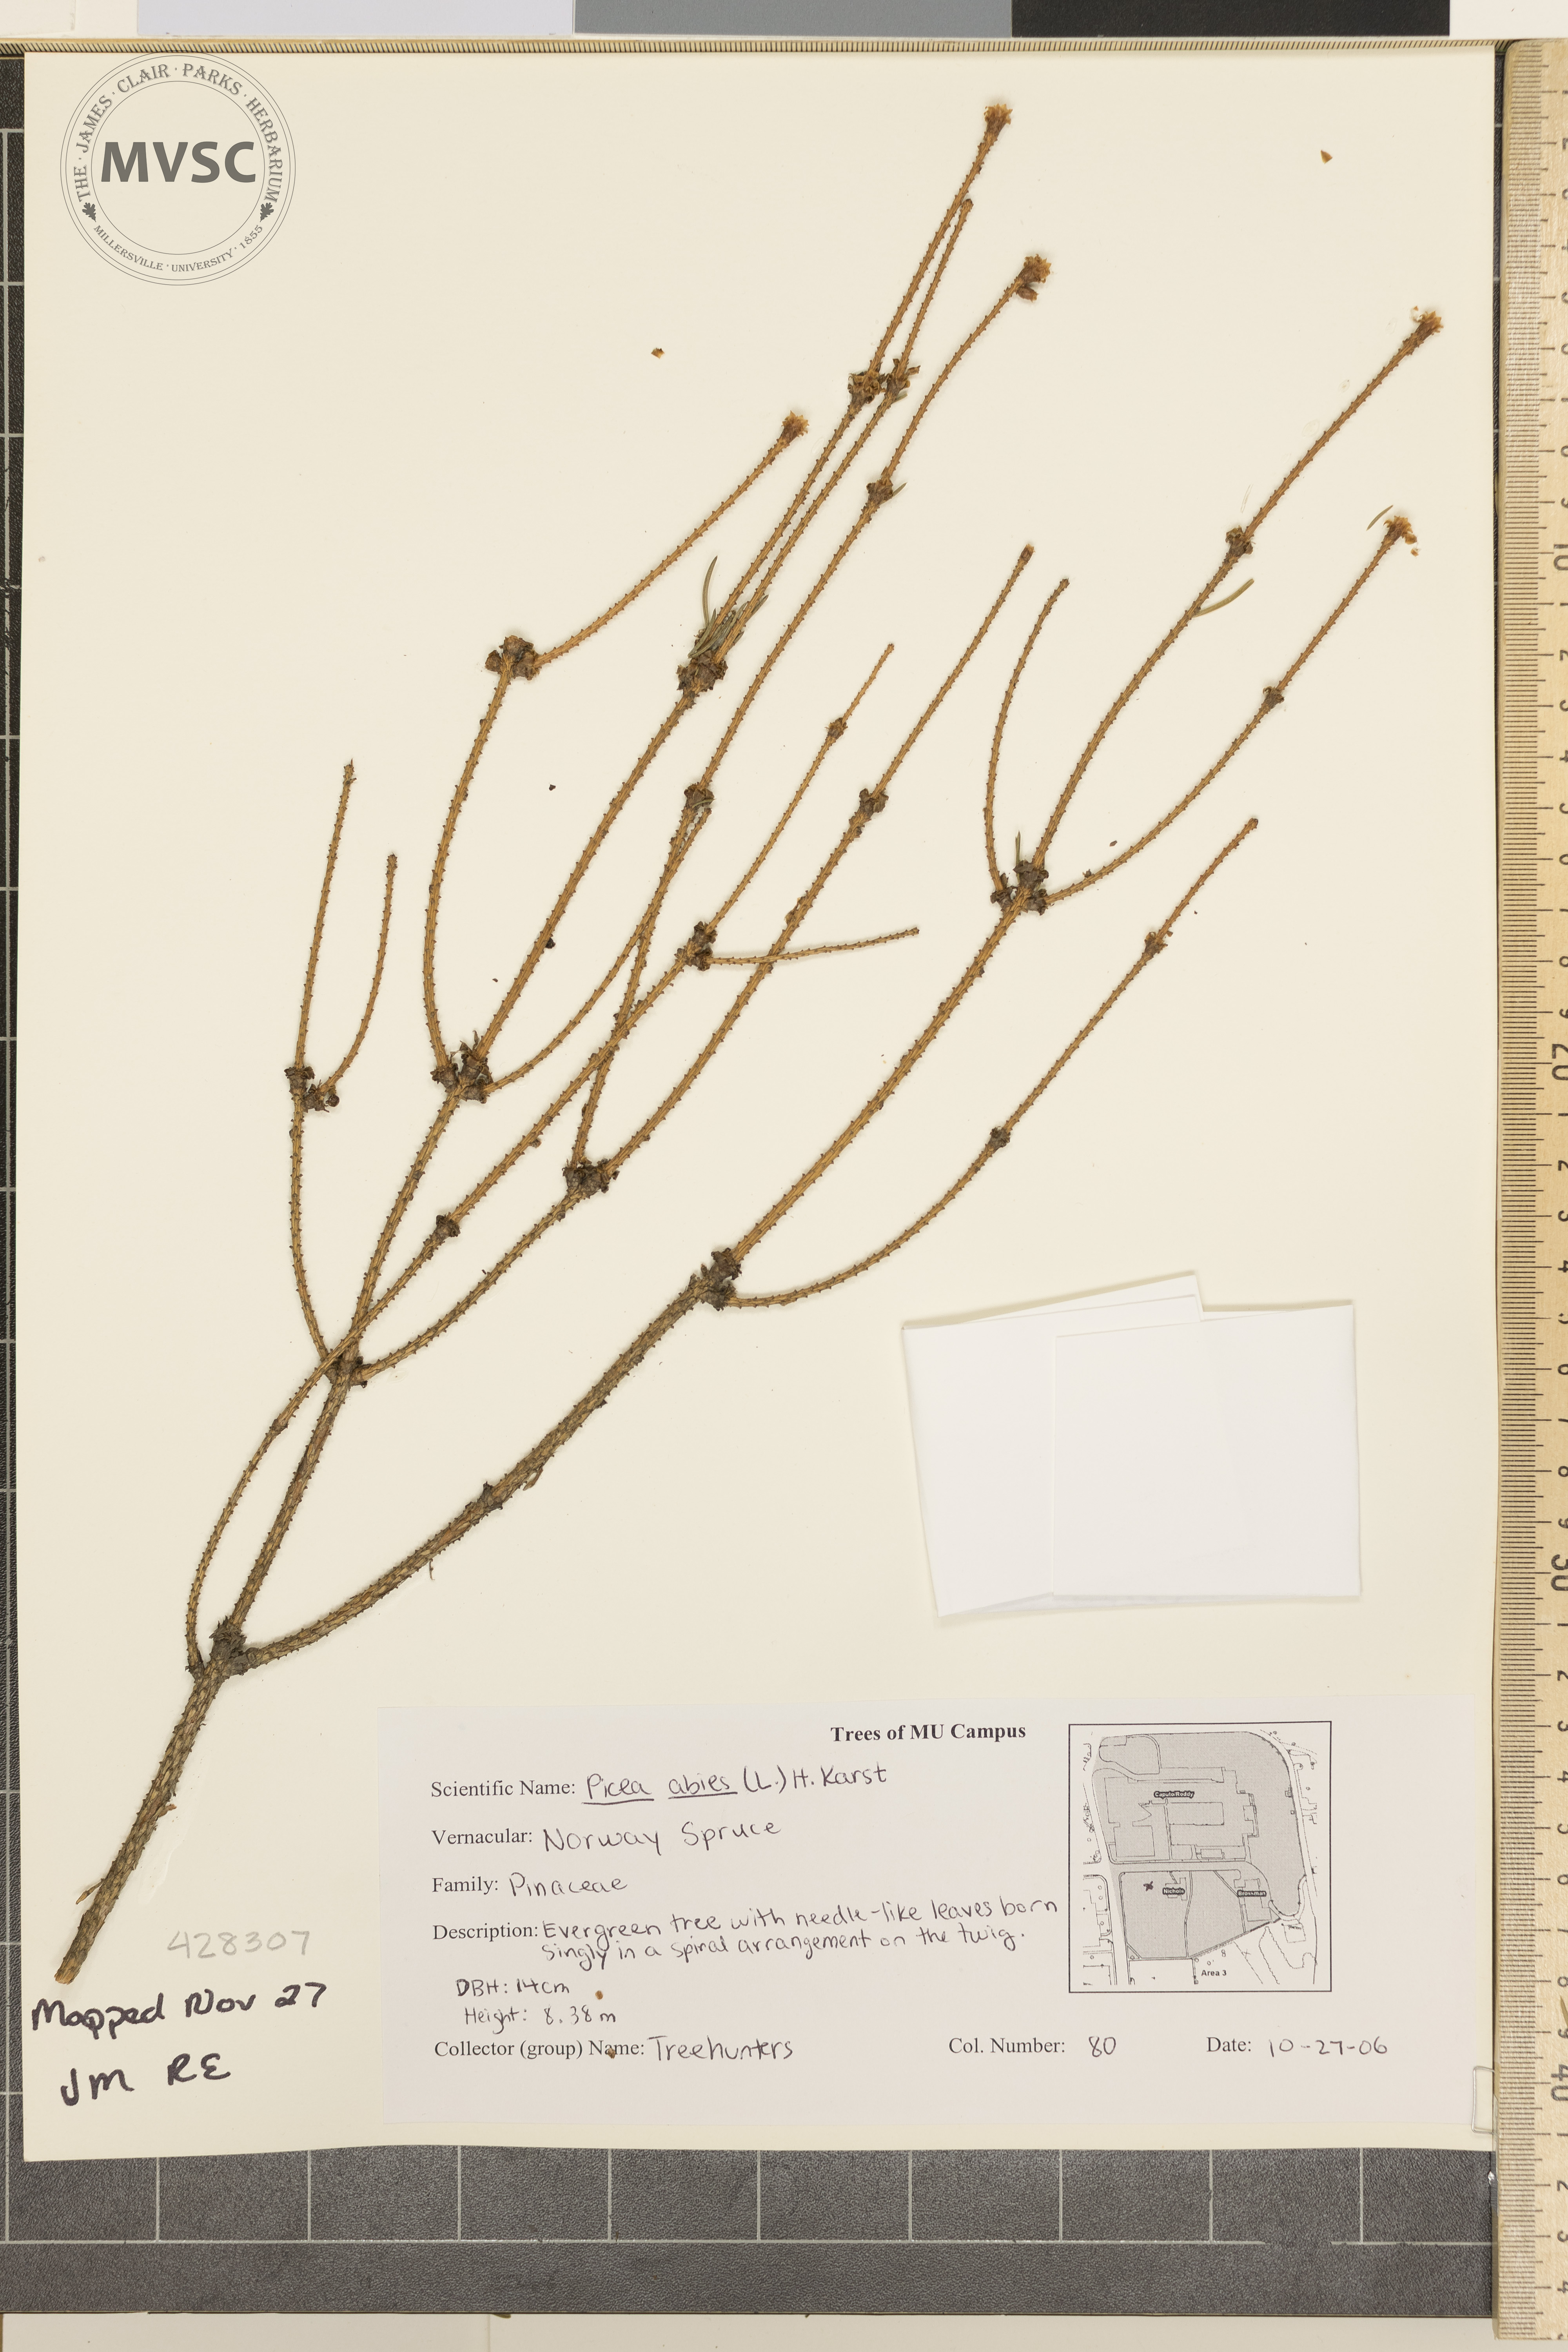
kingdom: Plantae
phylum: Tracheophyta
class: Pinopsida
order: Pinales
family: Pinaceae
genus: Picea
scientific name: Picea abies
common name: Norway Spruce
